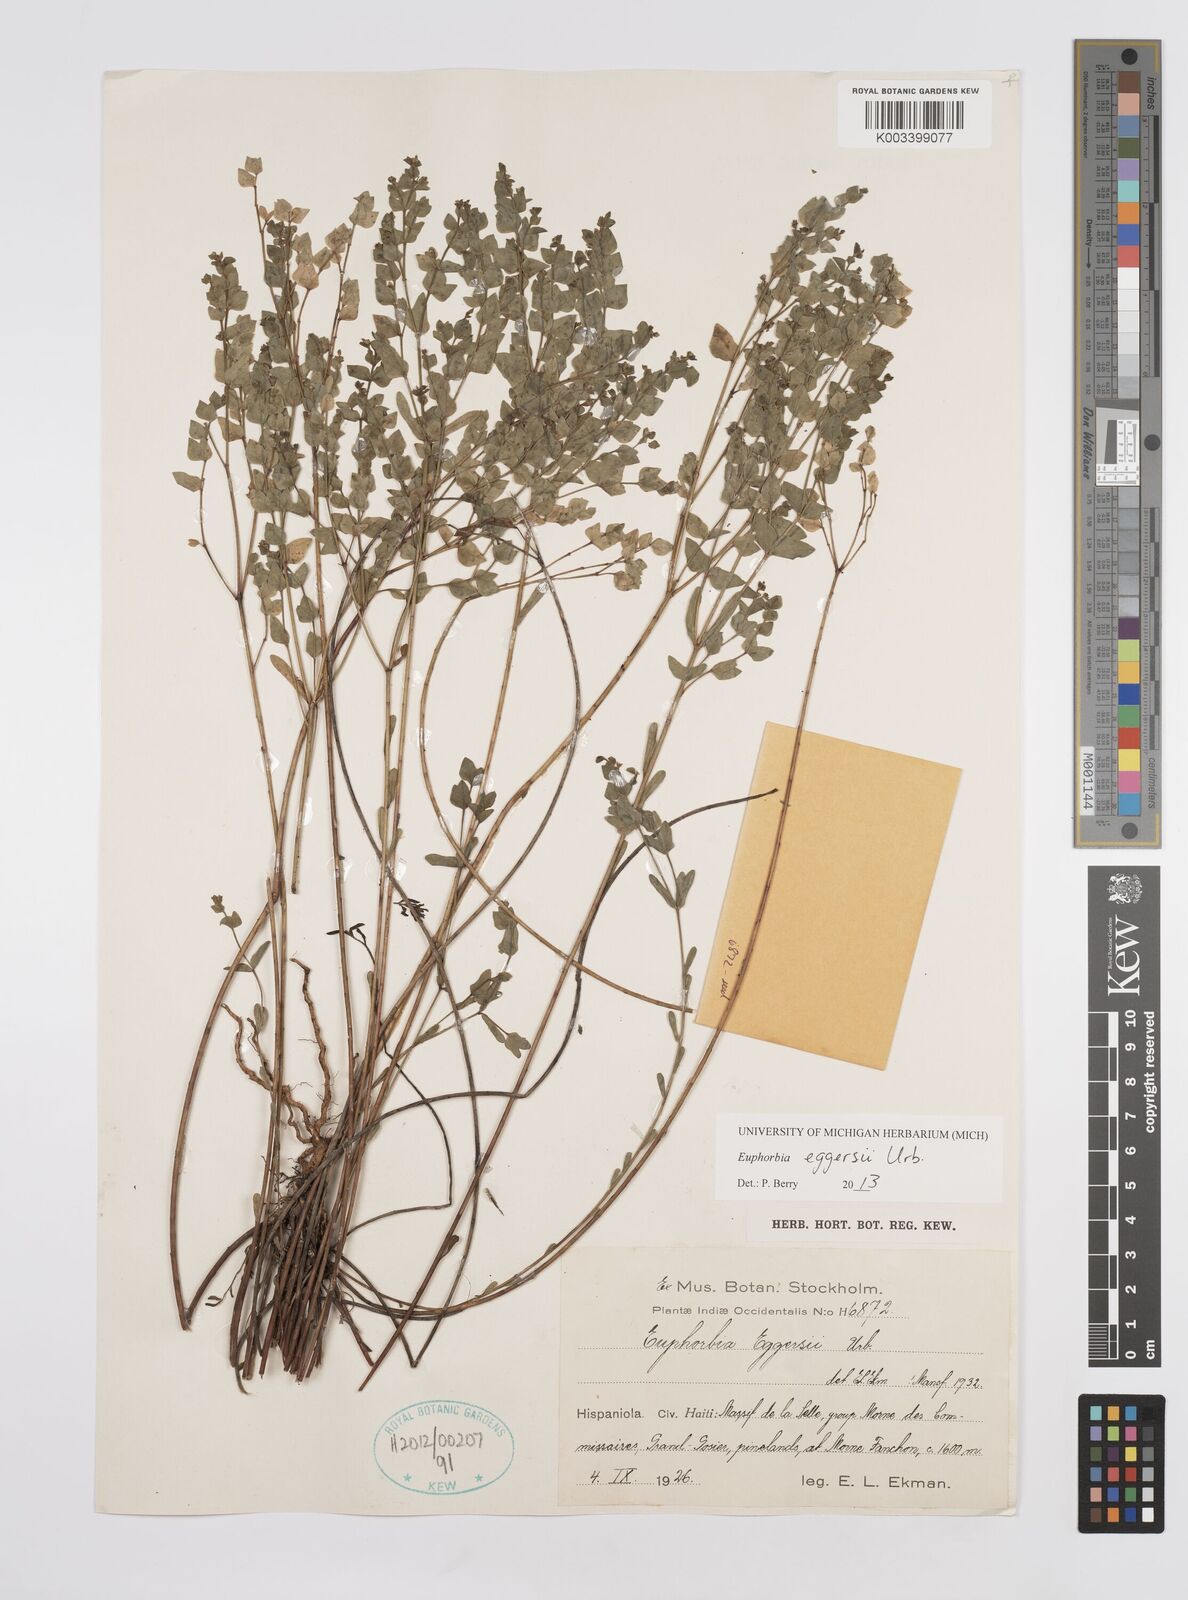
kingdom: Plantae
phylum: Tracheophyta
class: Magnoliopsida
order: Malpighiales
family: Euphorbiaceae
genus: Euphorbia
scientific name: Euphorbia eggersii
